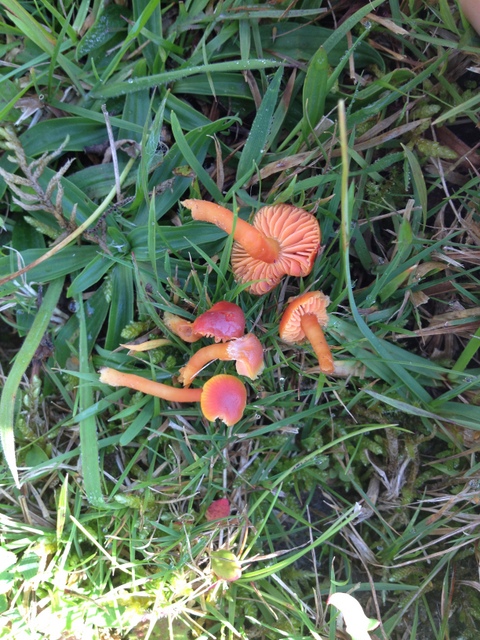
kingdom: Fungi
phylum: Basidiomycota
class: Agaricomycetes
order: Agaricales
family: Hygrophoraceae
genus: Hygrocybe
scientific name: Hygrocybe phaeococcinea
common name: sortdugget vokshat
